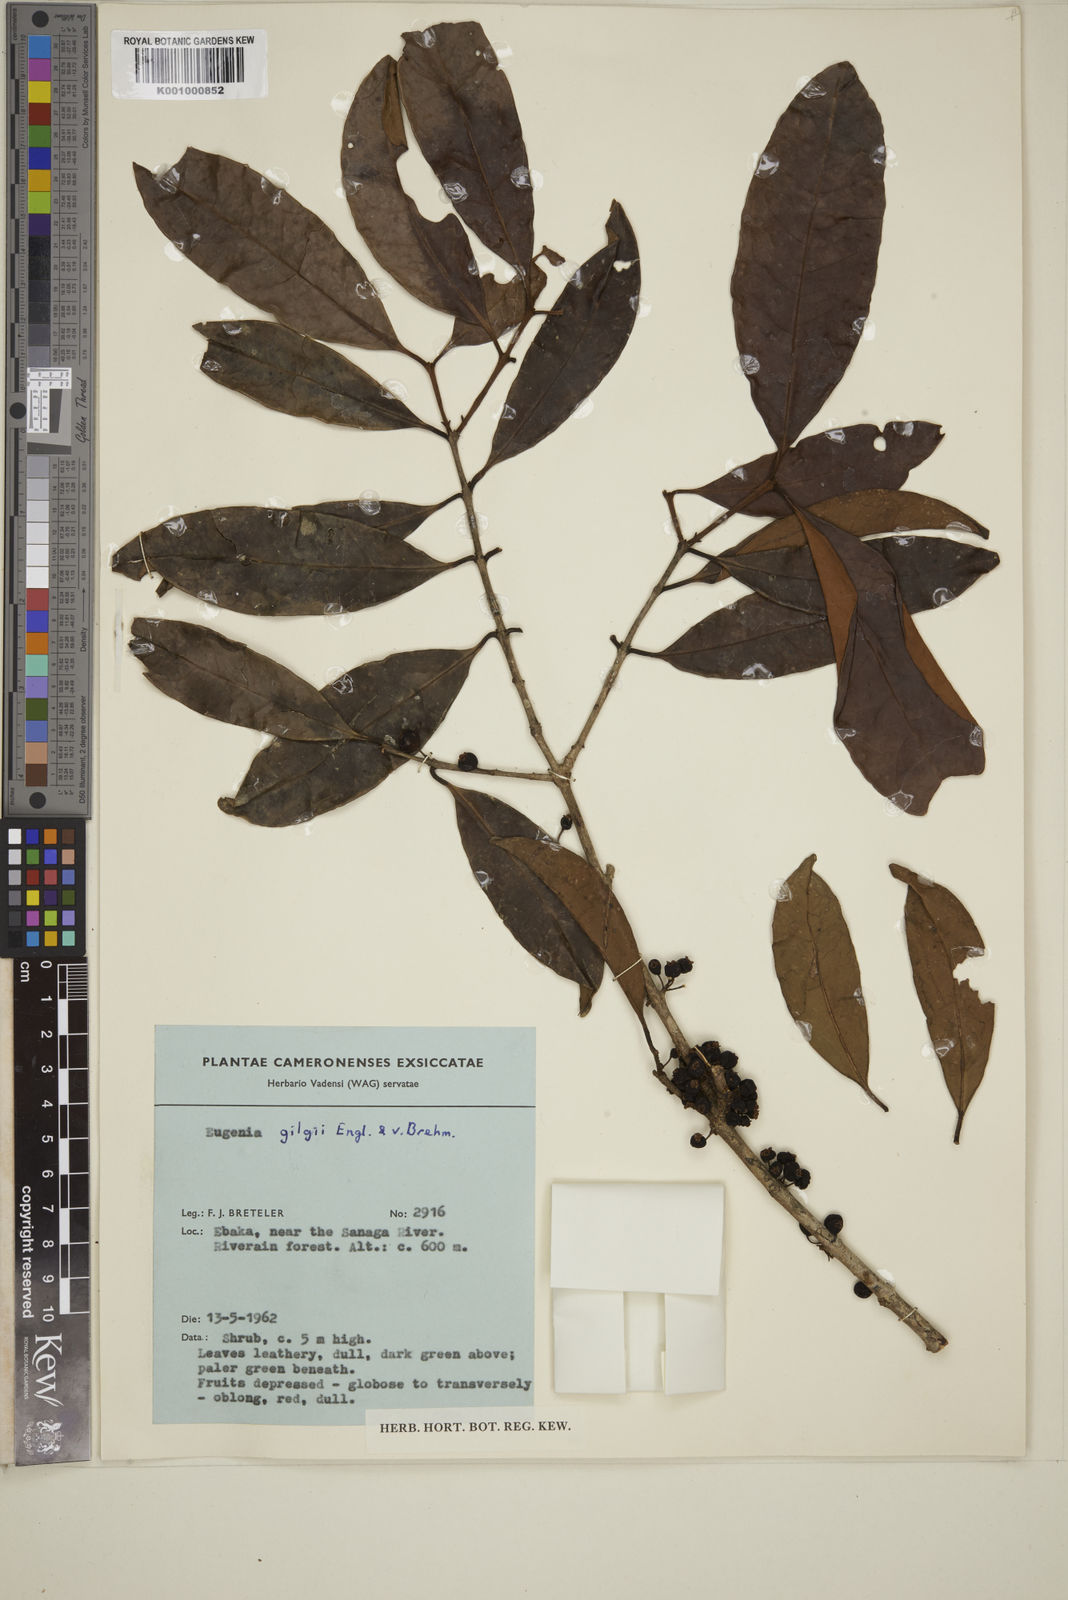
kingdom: Plantae
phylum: Tracheophyta
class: Magnoliopsida
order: Myrtales
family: Myrtaceae
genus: Eugenia
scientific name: Eugenia gilgii
